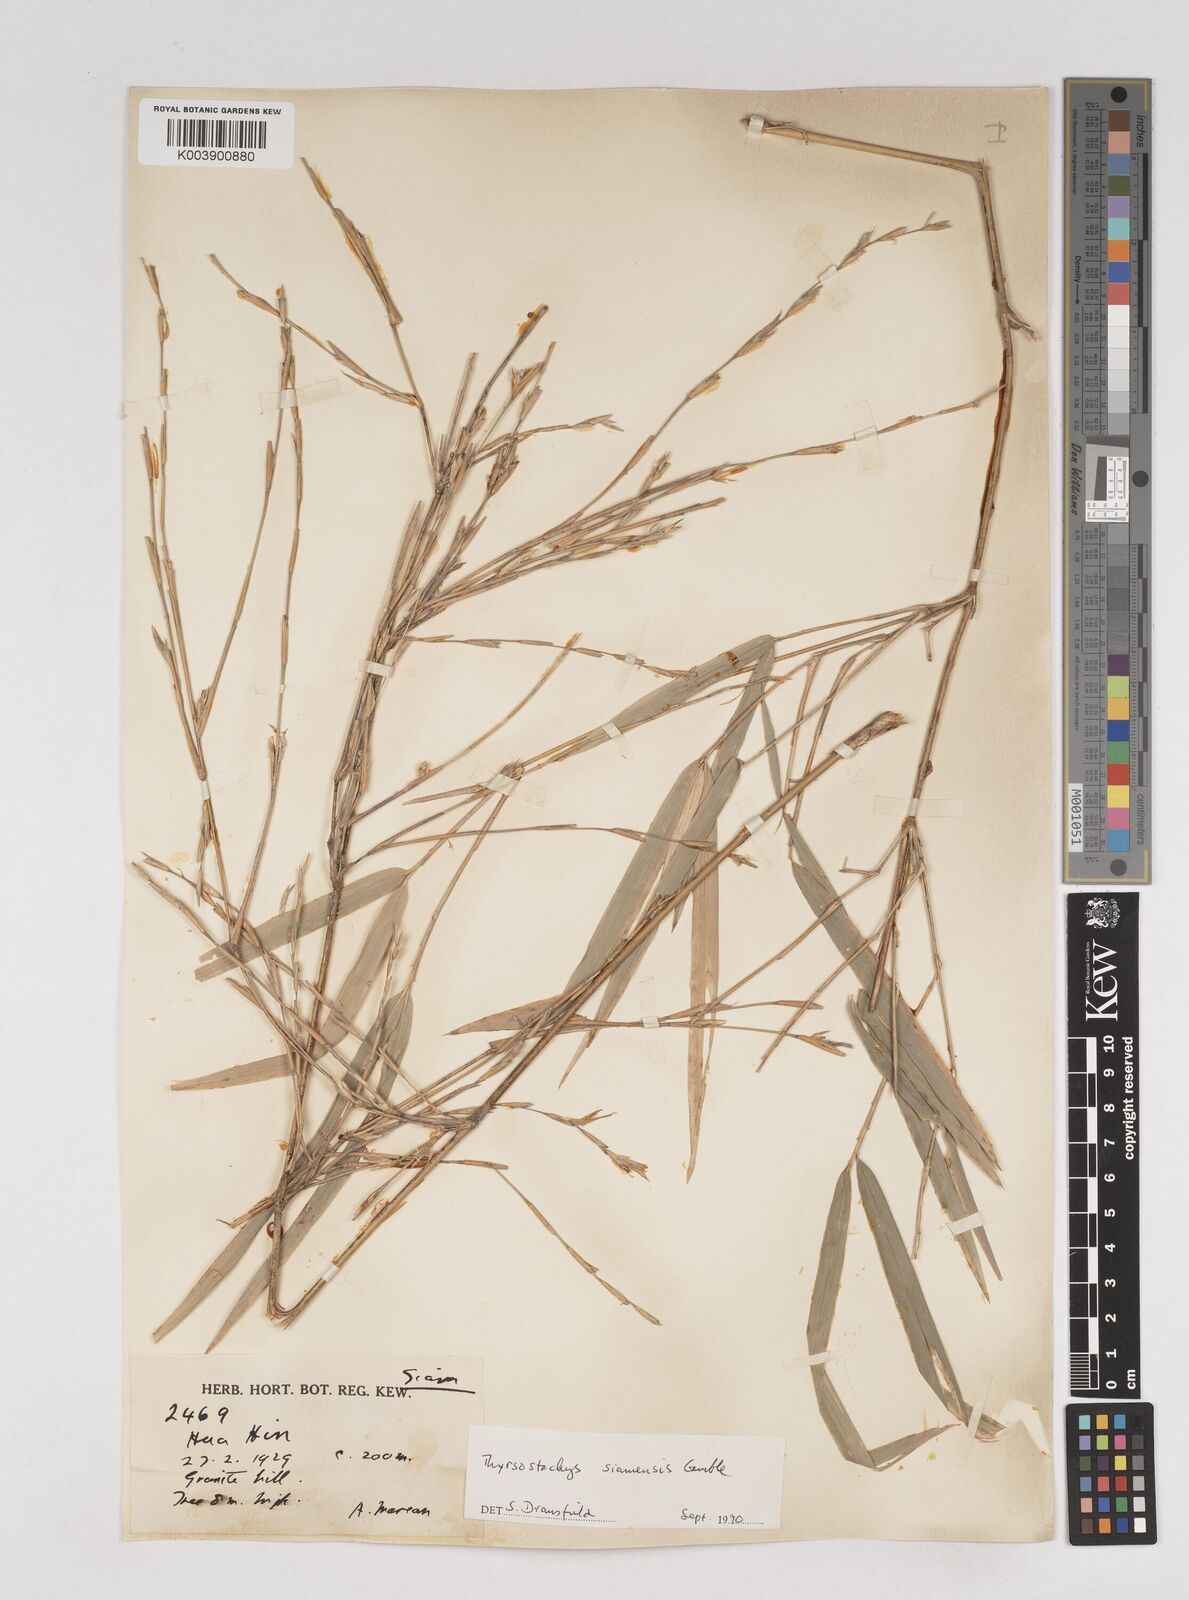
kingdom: Plantae
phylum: Tracheophyta
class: Liliopsida
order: Poales
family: Poaceae
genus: Thyrsostachys
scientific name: Thyrsostachys
